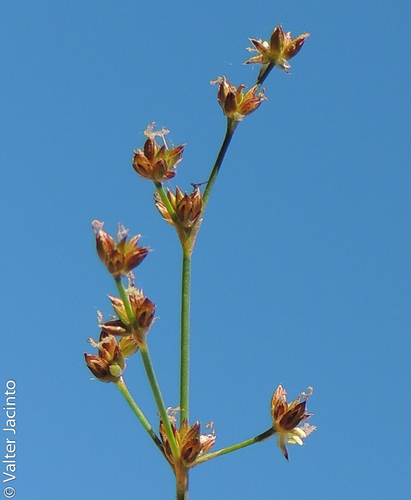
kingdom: Plantae
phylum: Tracheophyta
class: Liliopsida
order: Poales
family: Juncaceae
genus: Juncus
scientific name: Juncus articulatus
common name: Jointed rush
